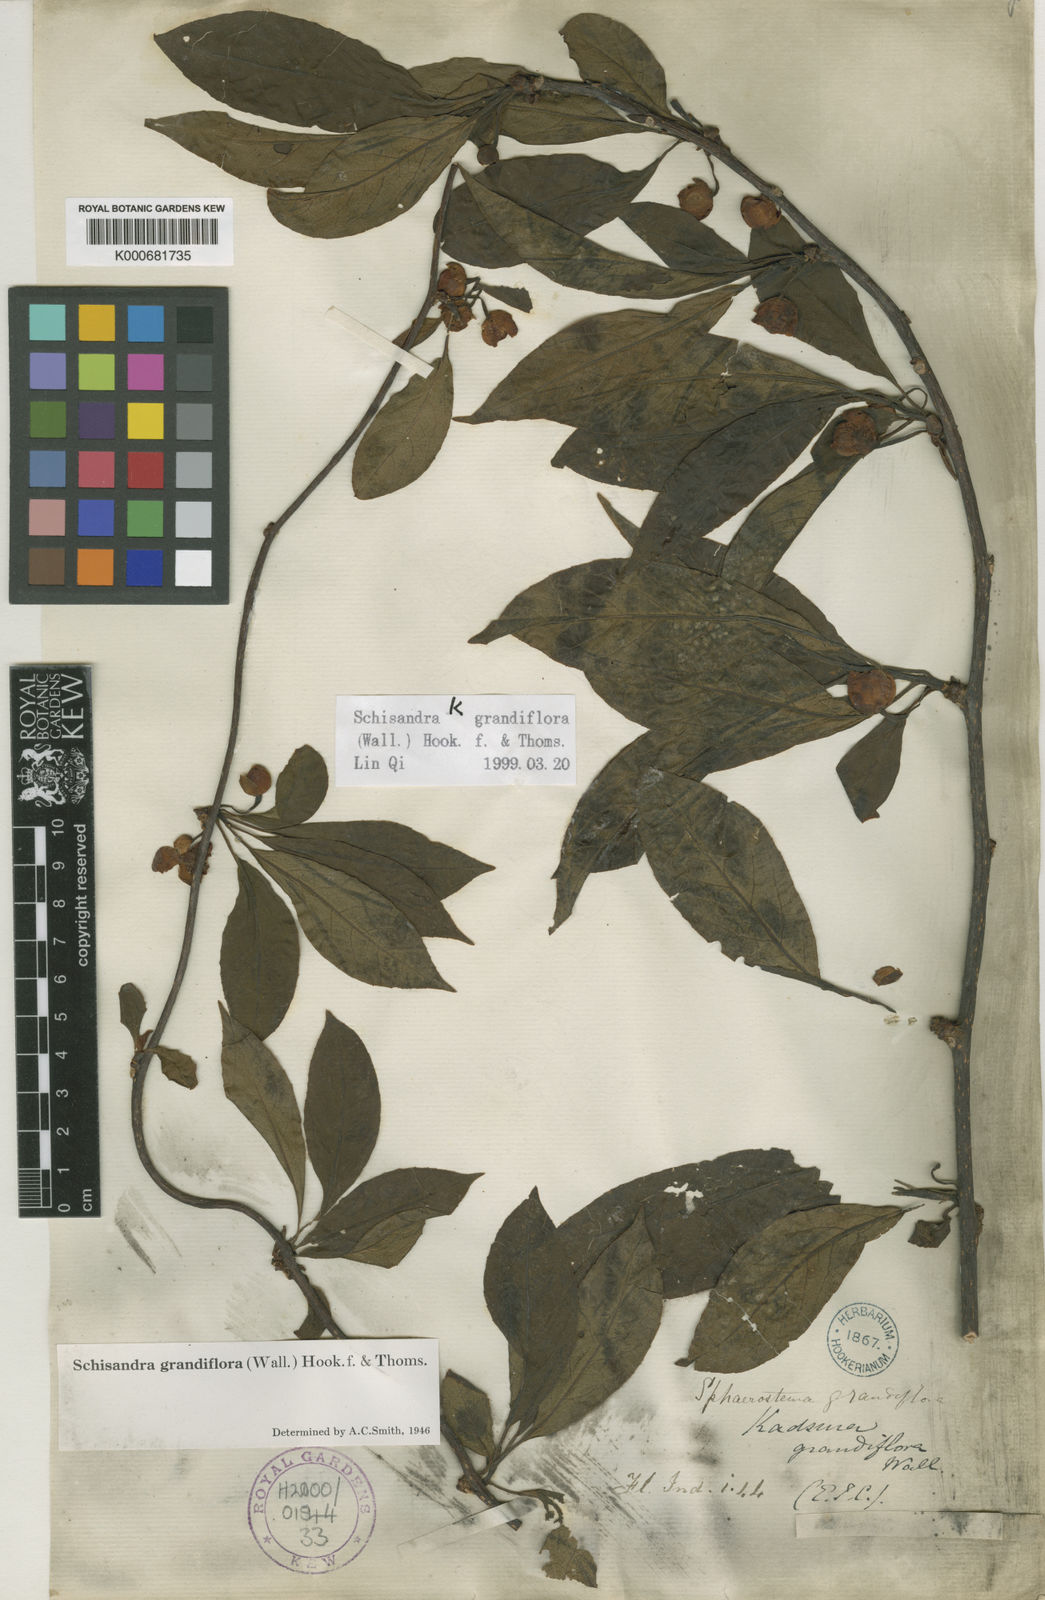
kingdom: Plantae
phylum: Tracheophyta
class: Magnoliopsida
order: Austrobaileyales
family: Schisandraceae
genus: Schisandra
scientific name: Schisandra grandiflora
